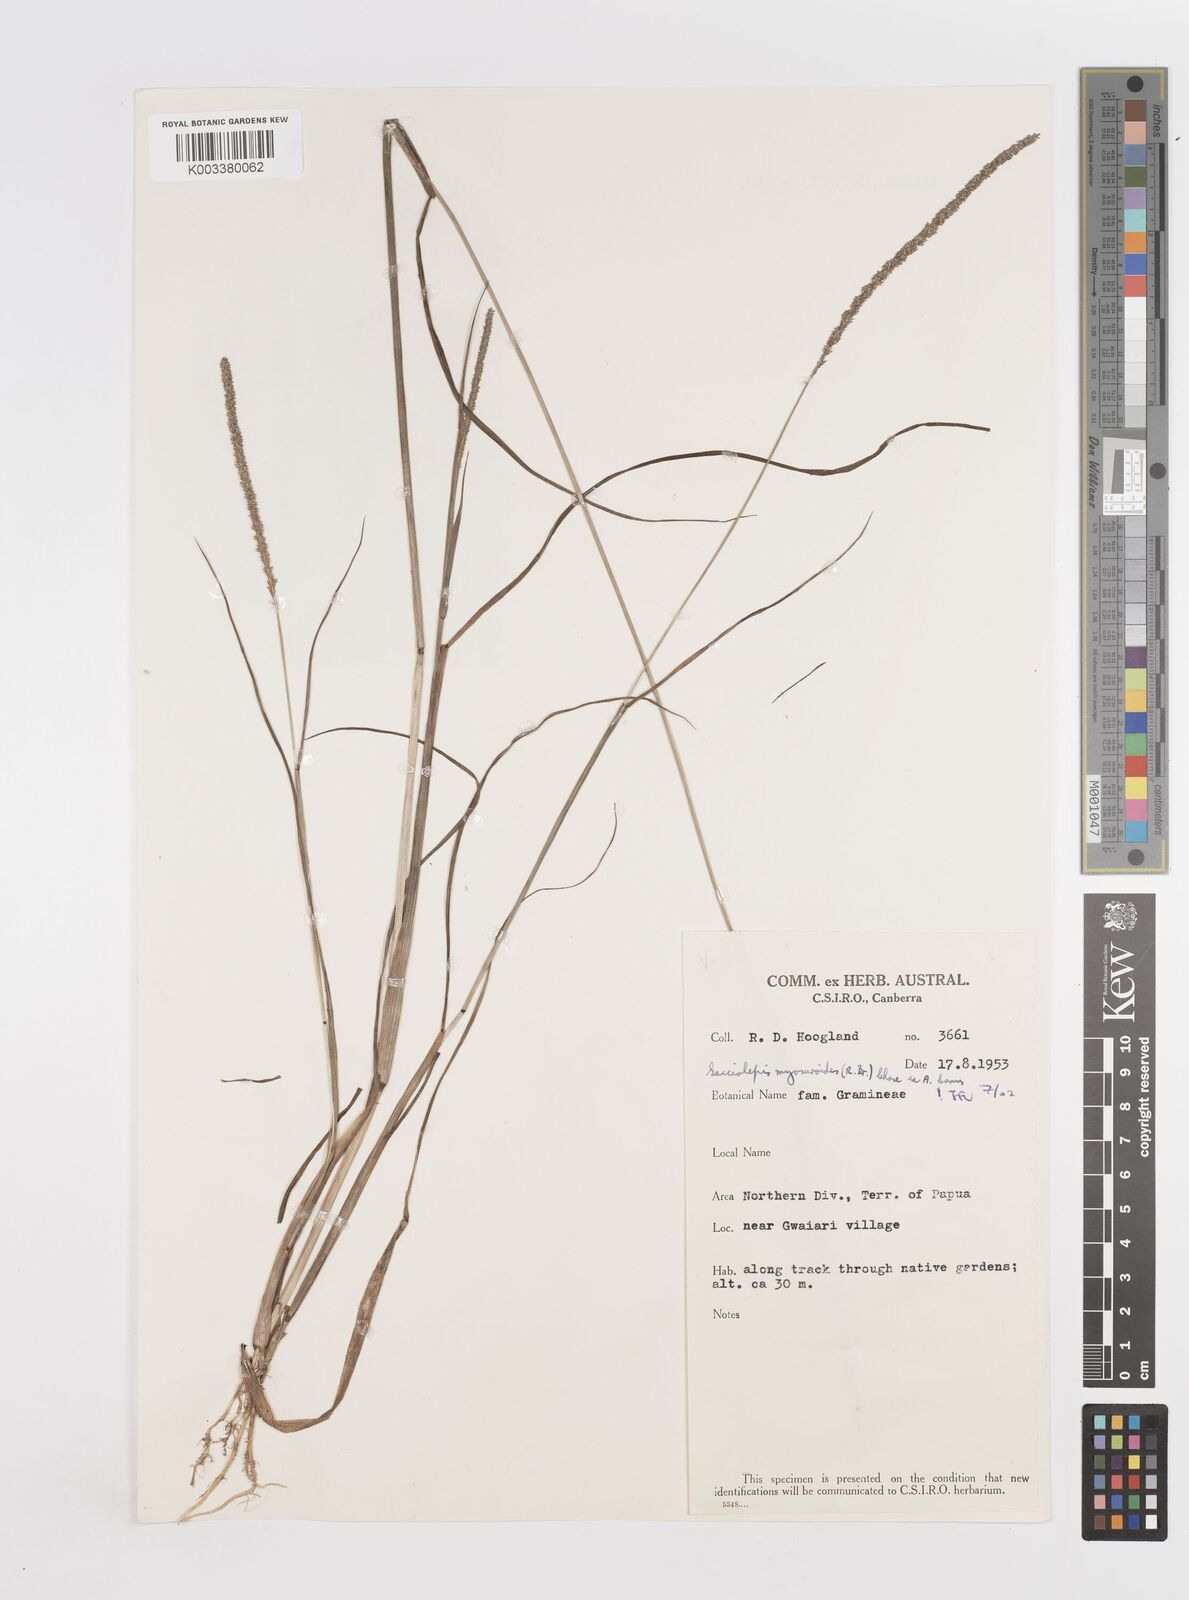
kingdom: Plantae
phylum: Tracheophyta
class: Liliopsida
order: Poales
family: Poaceae
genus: Sacciolepis
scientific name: Sacciolepis myosuroides
